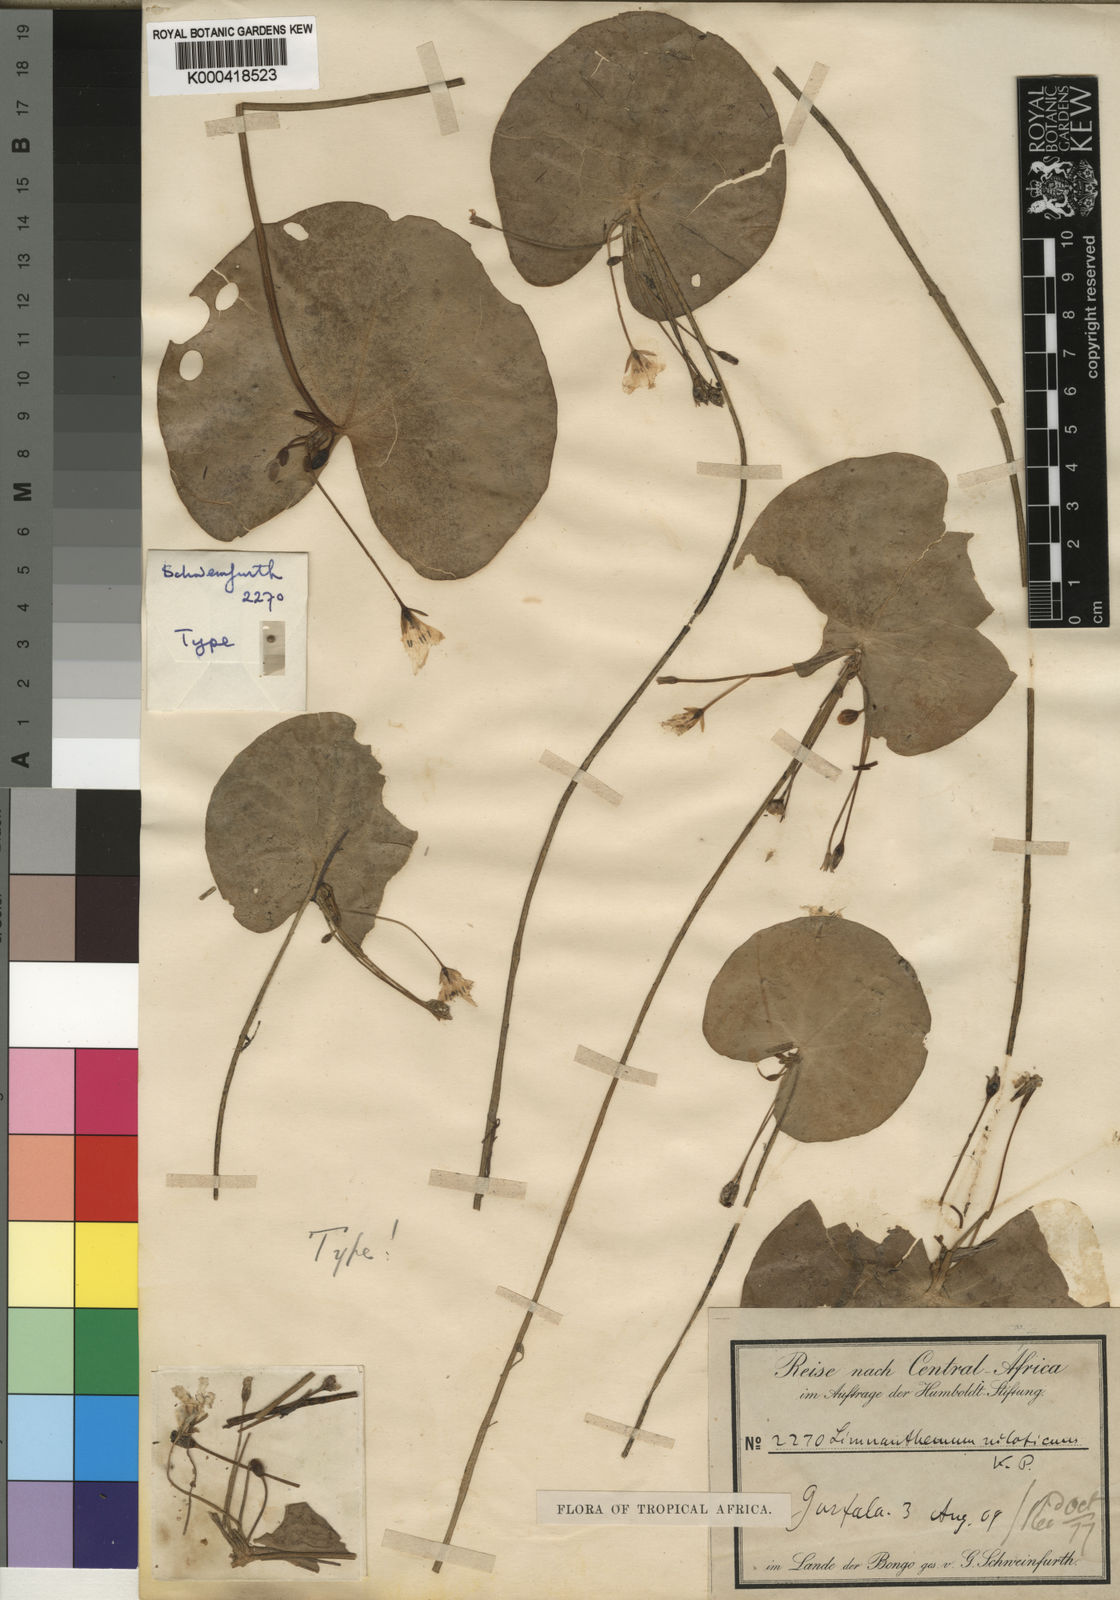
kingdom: Plantae
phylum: Tracheophyta
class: Magnoliopsida
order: Asterales
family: Menyanthaceae
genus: Nymphoides
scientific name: Nymphoides indica
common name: Water-snowflake
